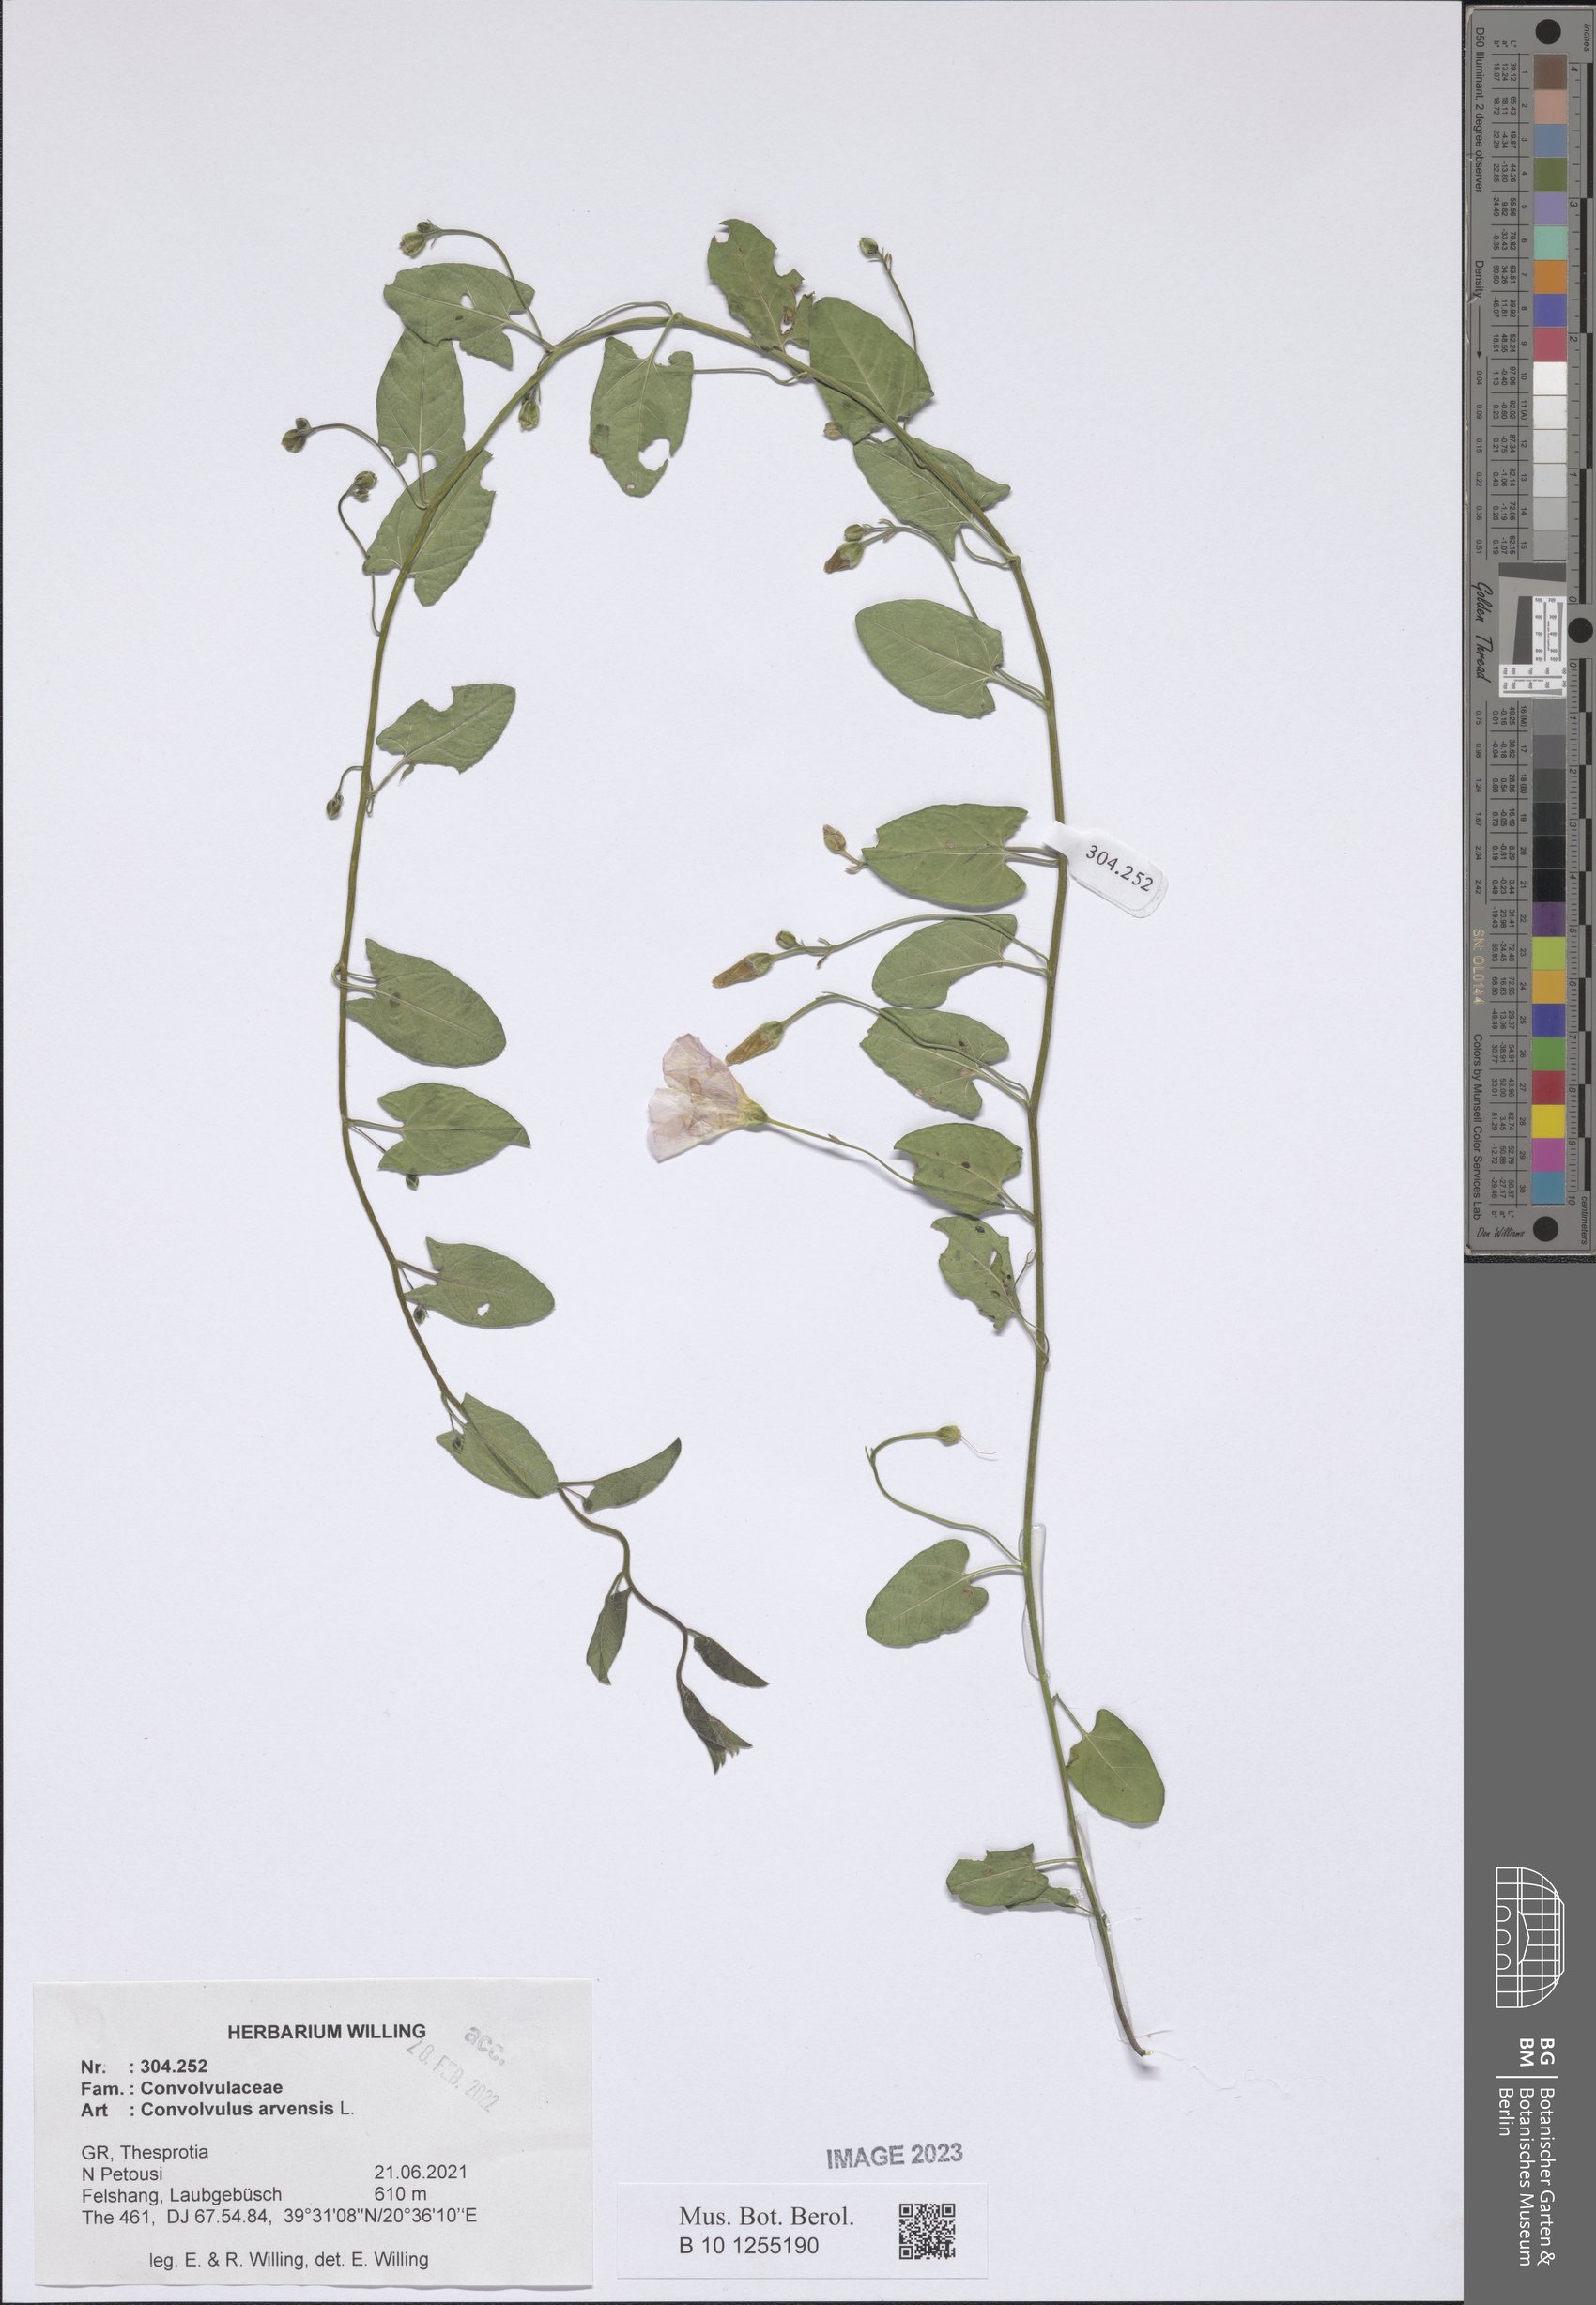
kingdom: Plantae
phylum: Tracheophyta
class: Magnoliopsida
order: Solanales
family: Convolvulaceae
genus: Convolvulus
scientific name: Convolvulus arvensis
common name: Field bindweed
